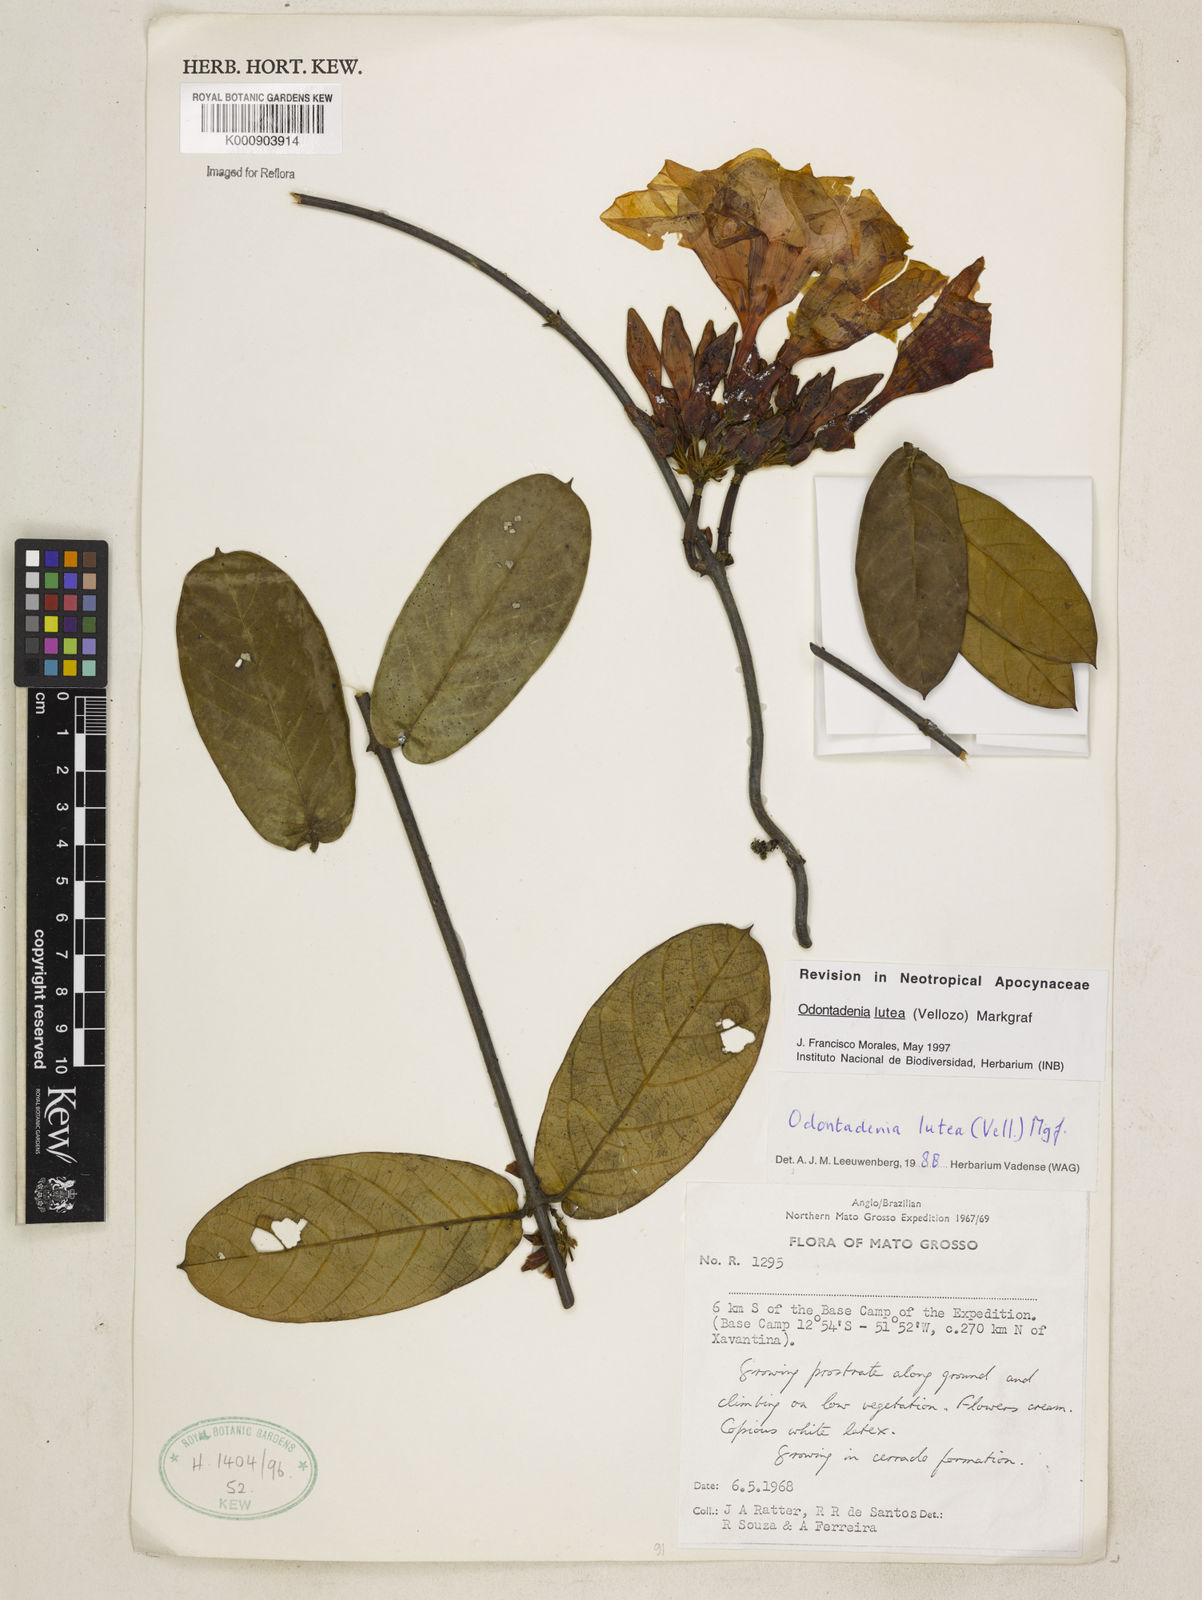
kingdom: Plantae
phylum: Tracheophyta
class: Magnoliopsida
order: Gentianales
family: Apocynaceae
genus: Odontadenia
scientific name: Odontadenia lutea
